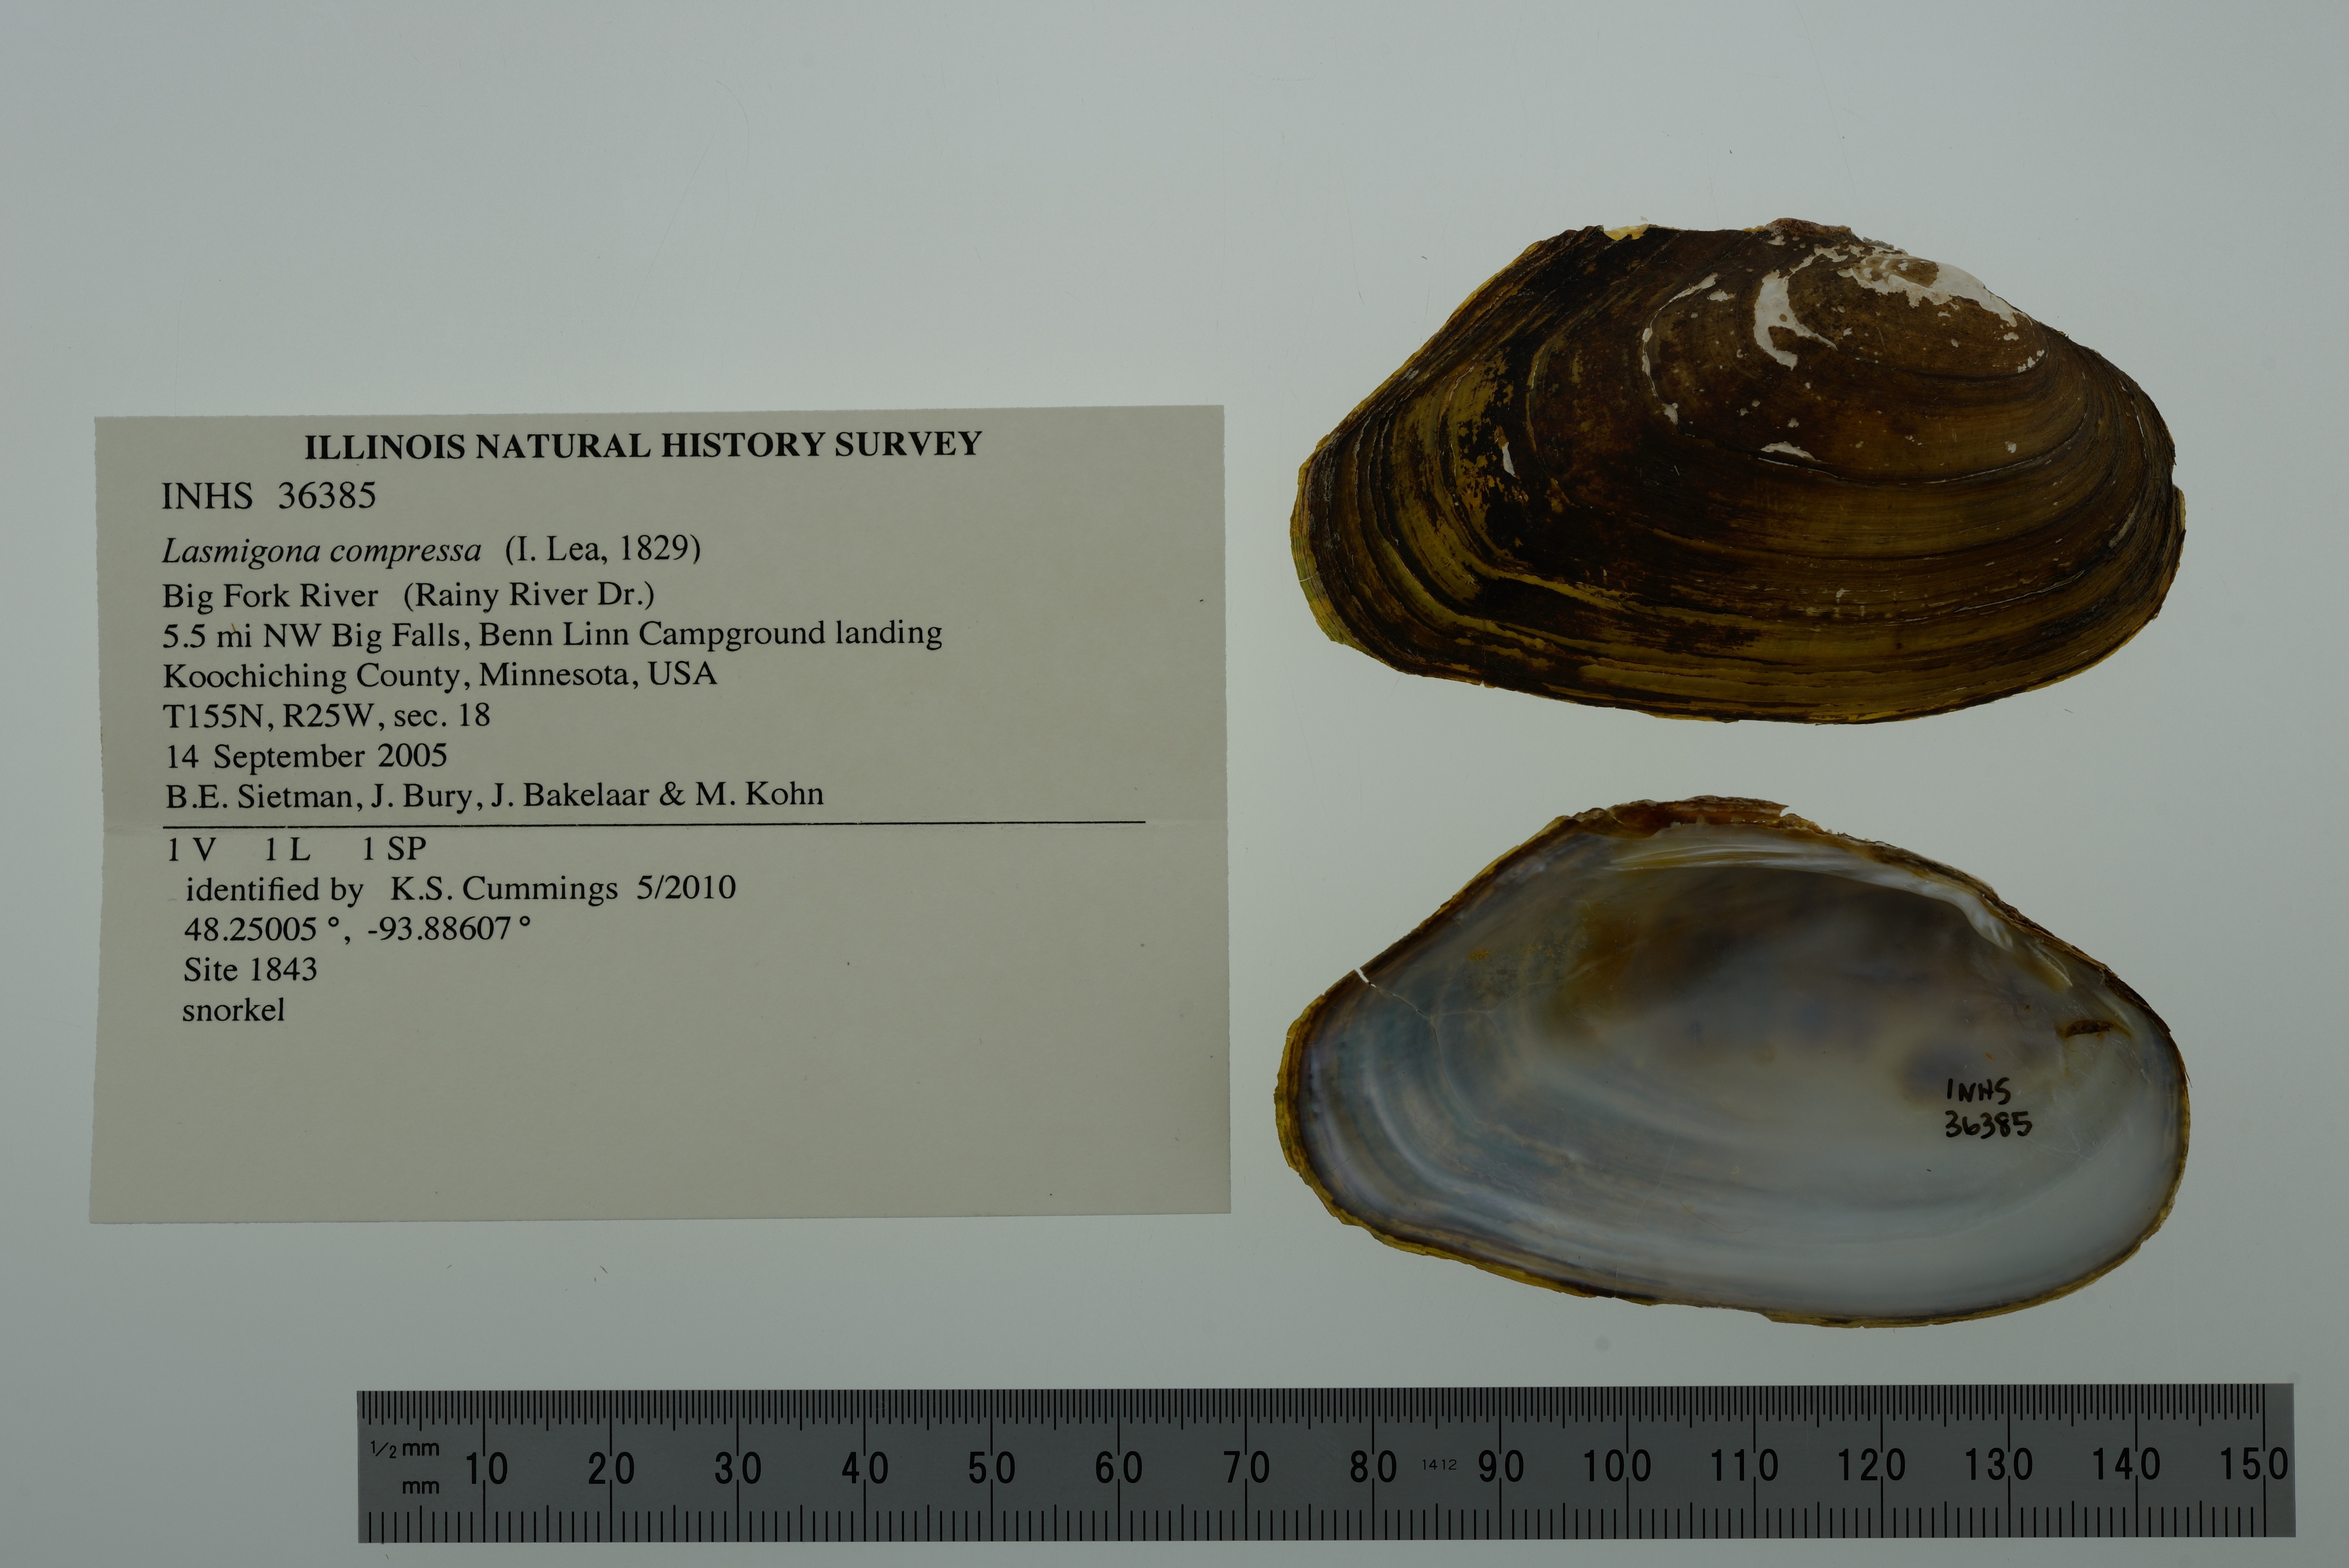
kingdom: Animalia
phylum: Mollusca
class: Bivalvia
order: Unionida
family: Unionidae
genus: Lasmigona
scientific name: Lasmigona compressa
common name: Creek heelsplitter
